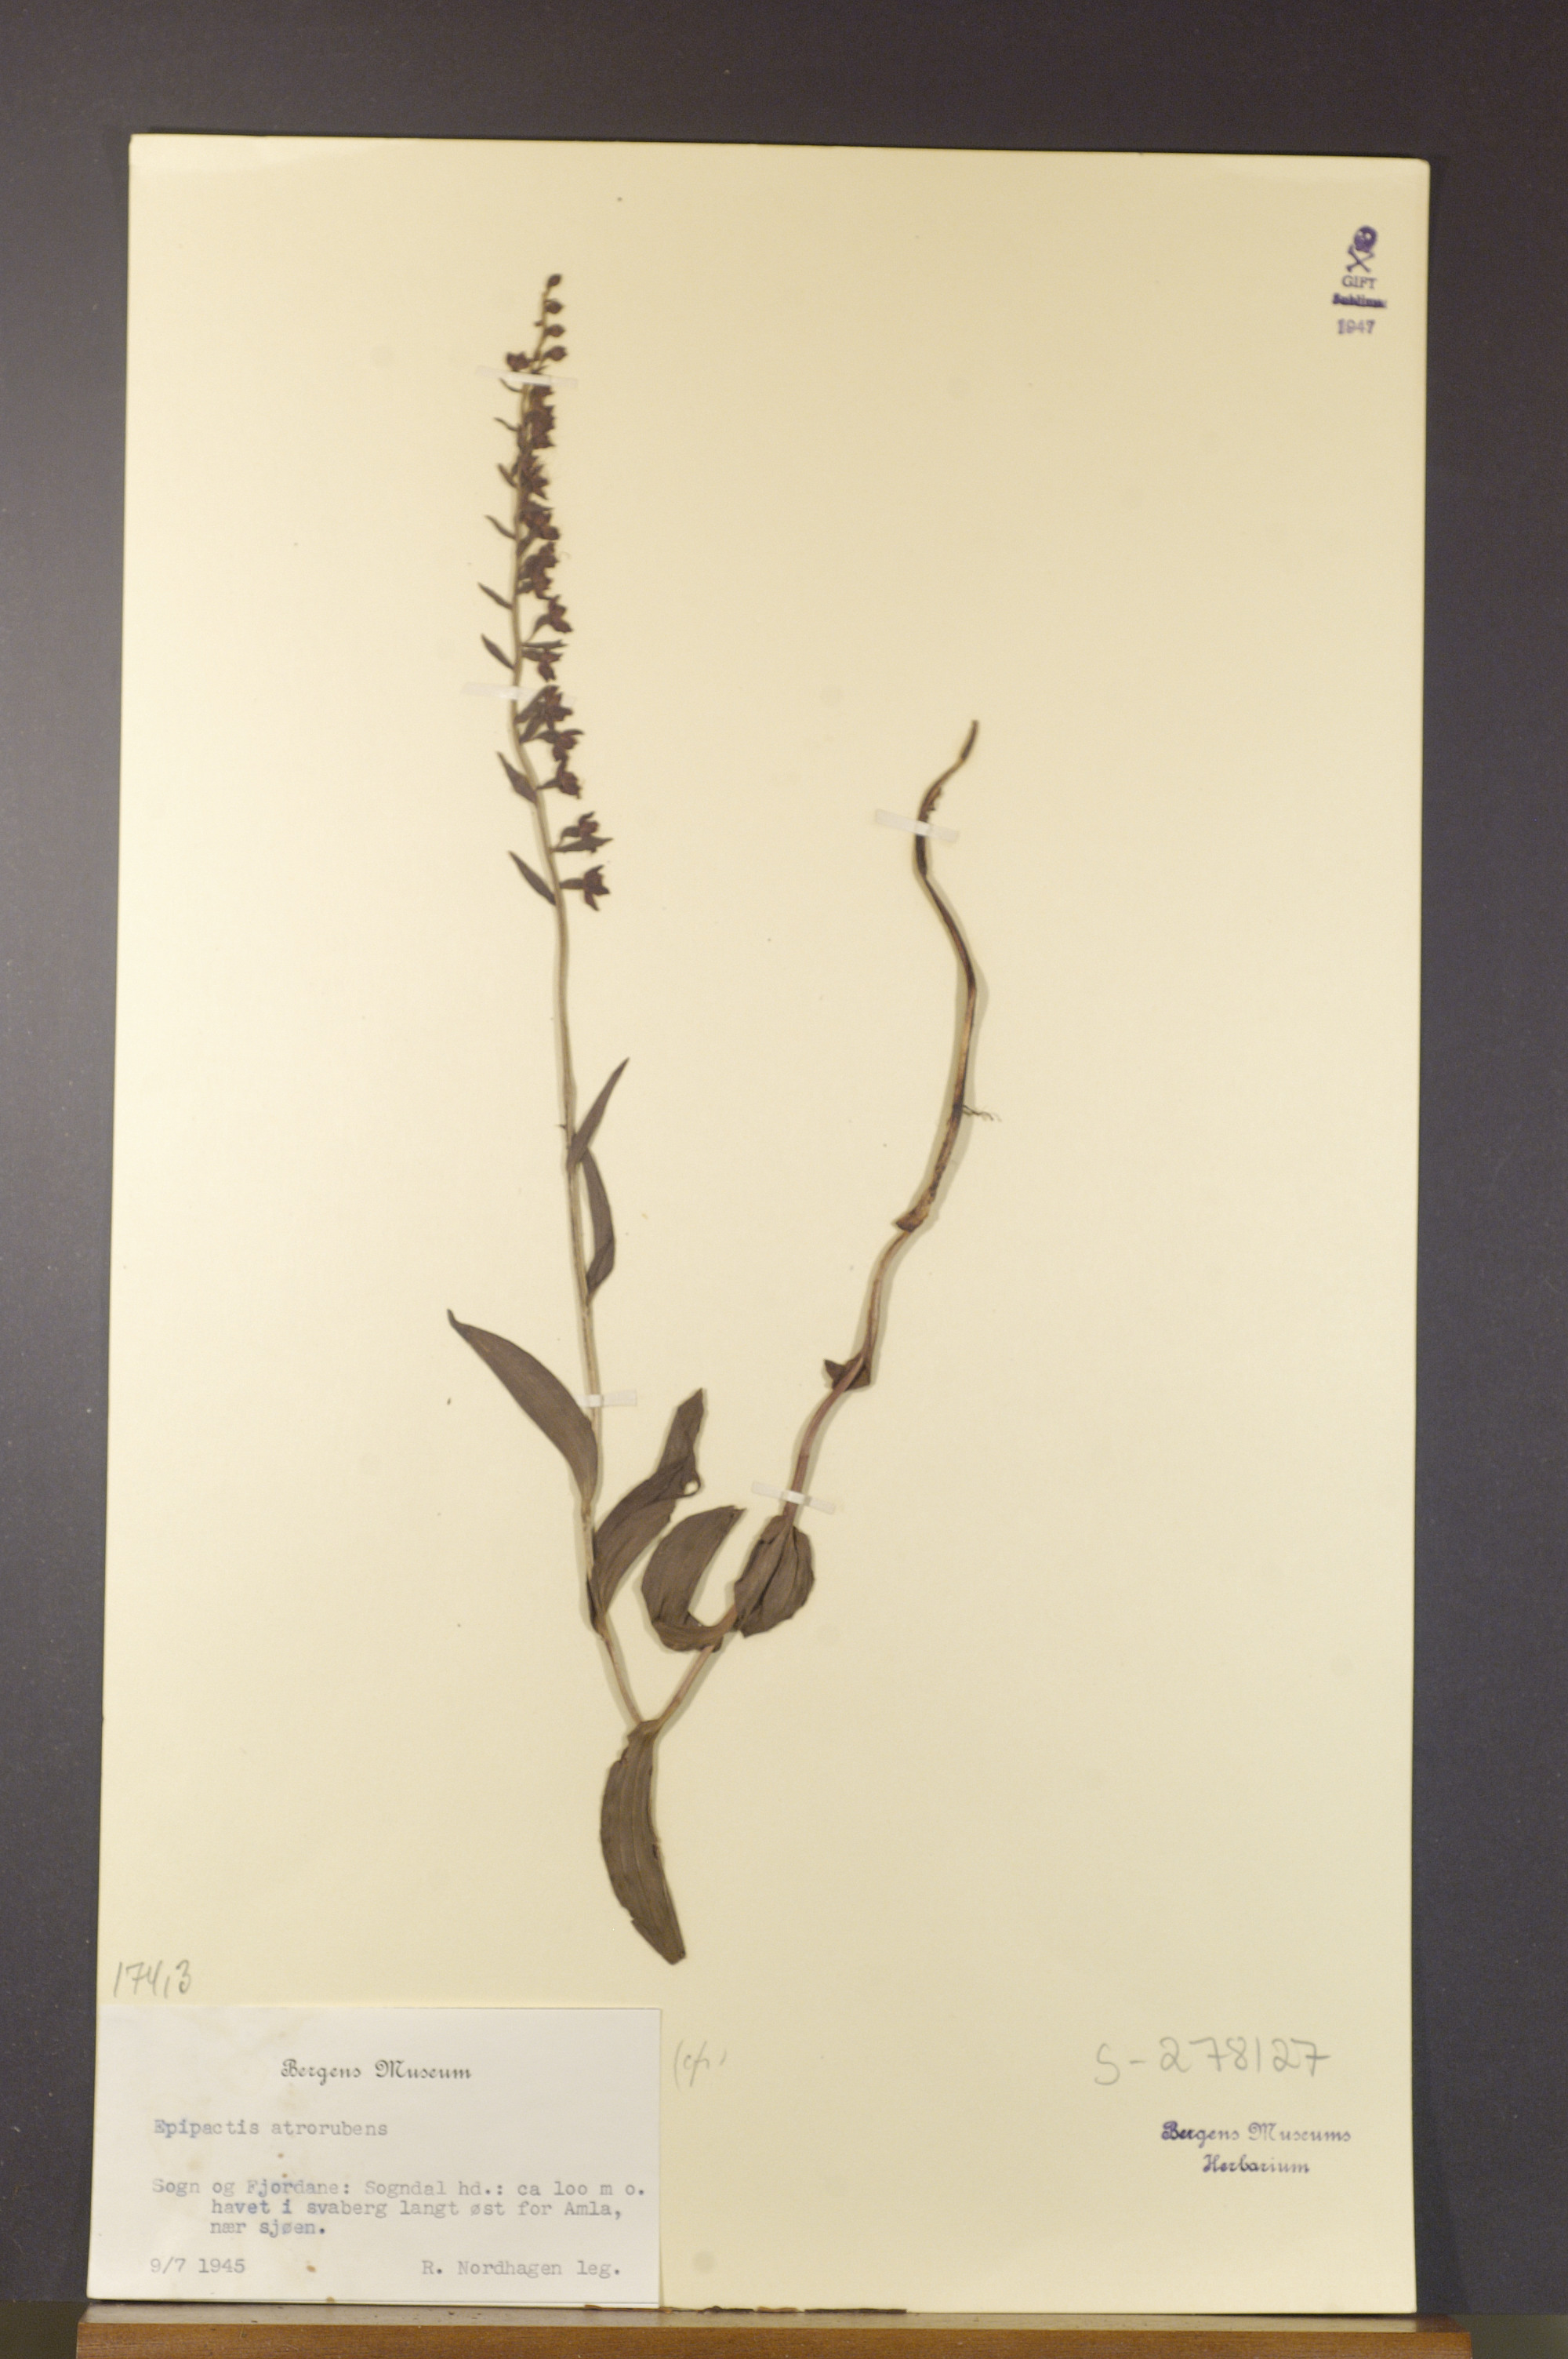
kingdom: Plantae
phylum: Tracheophyta
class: Liliopsida
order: Asparagales
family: Orchidaceae
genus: Epipactis
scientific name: Epipactis atrorubens
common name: Dark-red helleborine
